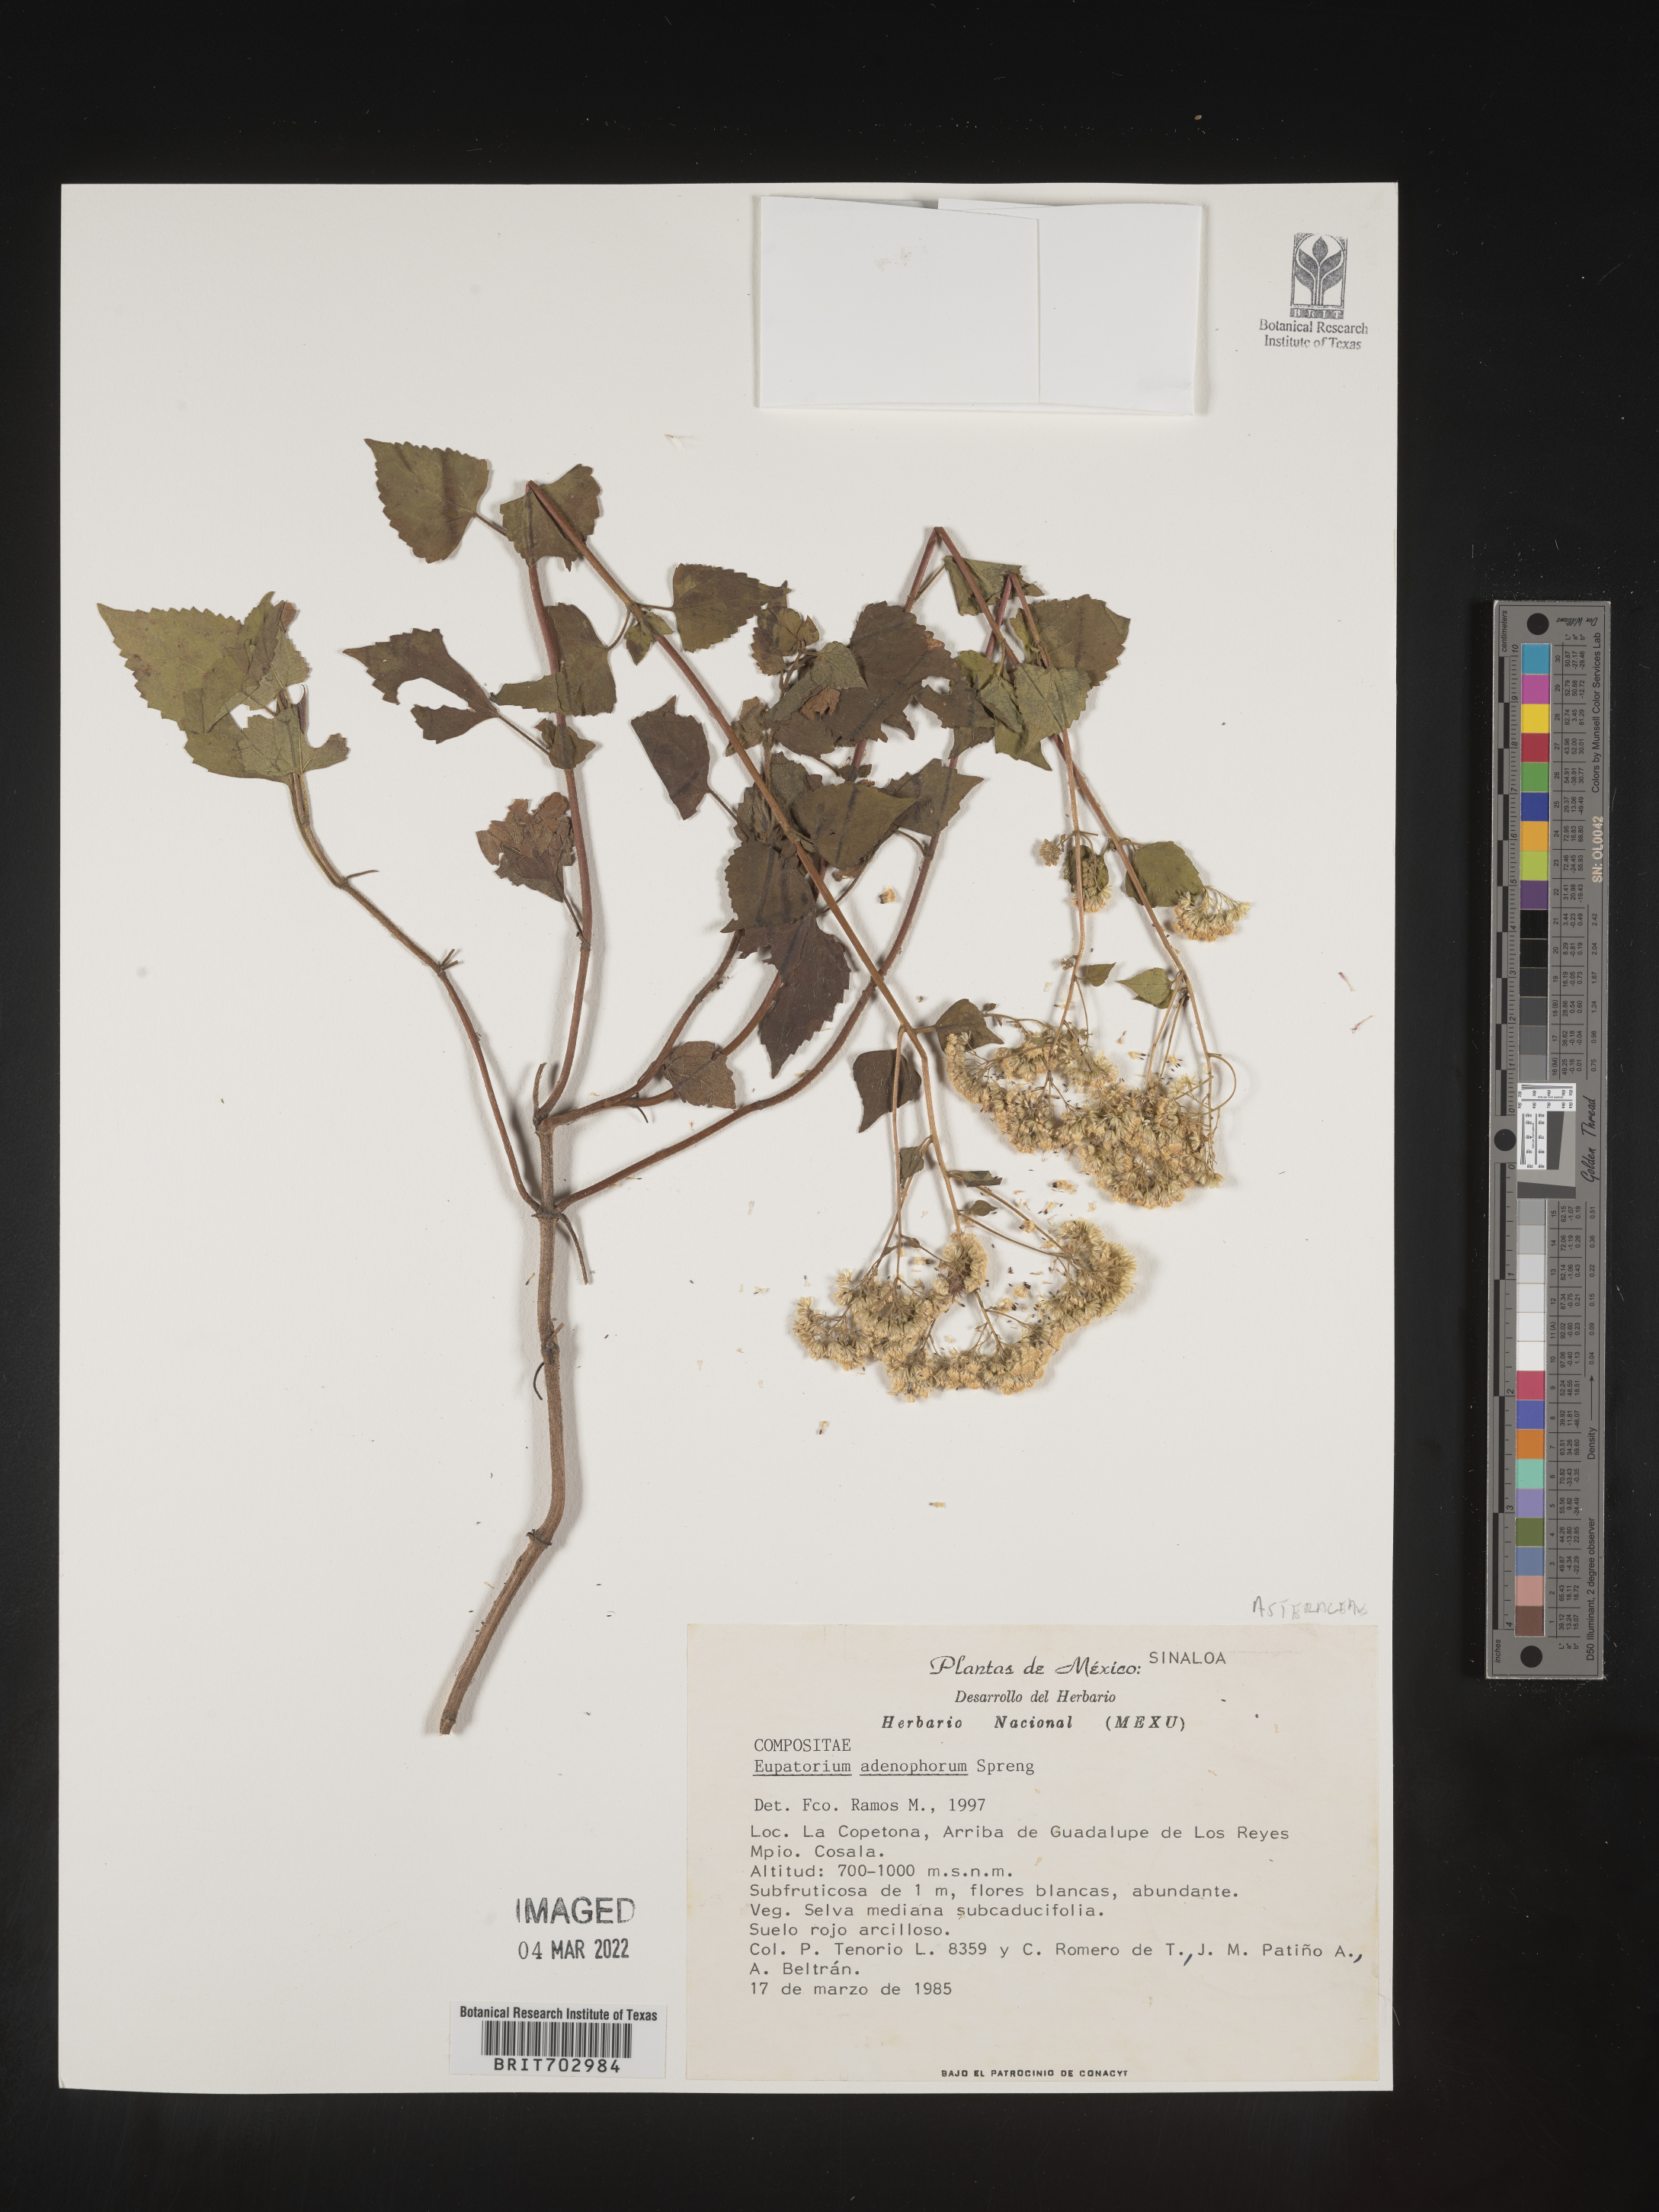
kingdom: Plantae
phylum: Tracheophyta
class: Magnoliopsida
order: Asterales
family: Asteraceae
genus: Eupatorium
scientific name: Eupatorium
